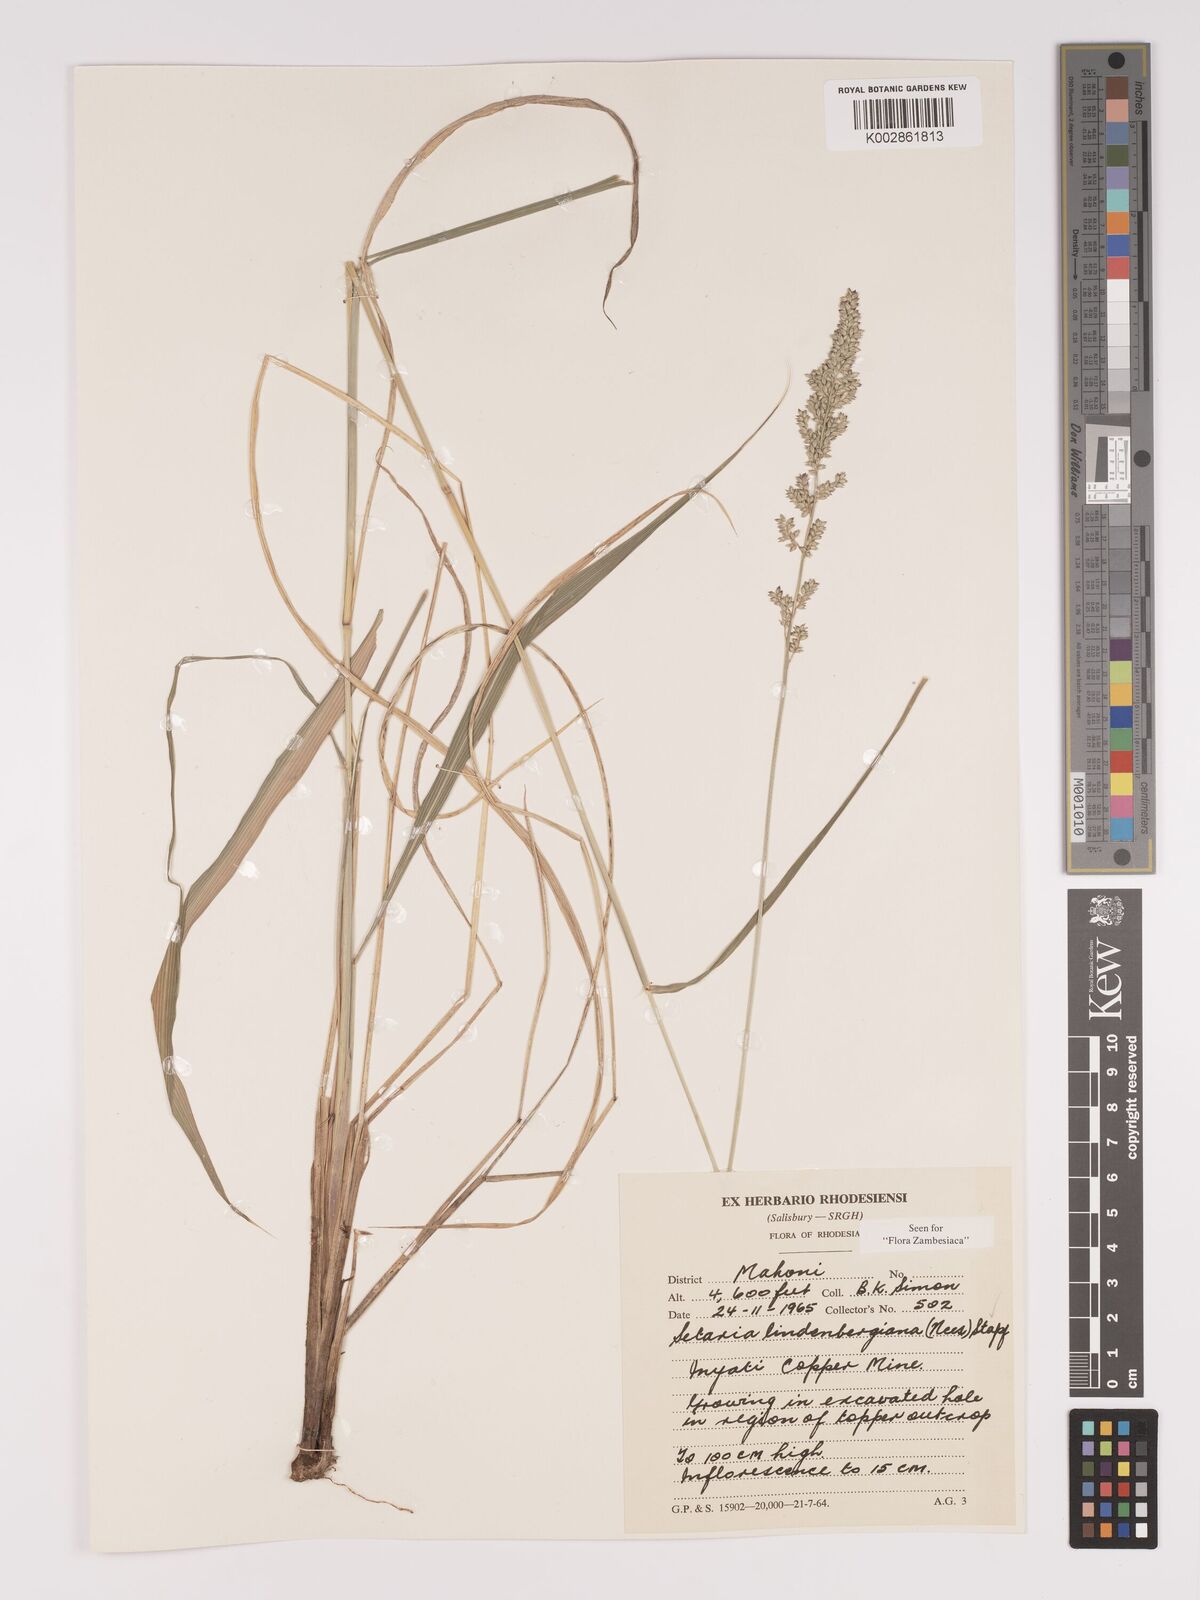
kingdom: Plantae
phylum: Tracheophyta
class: Liliopsida
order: Poales
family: Poaceae
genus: Setaria
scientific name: Setaria lindenbergiana
